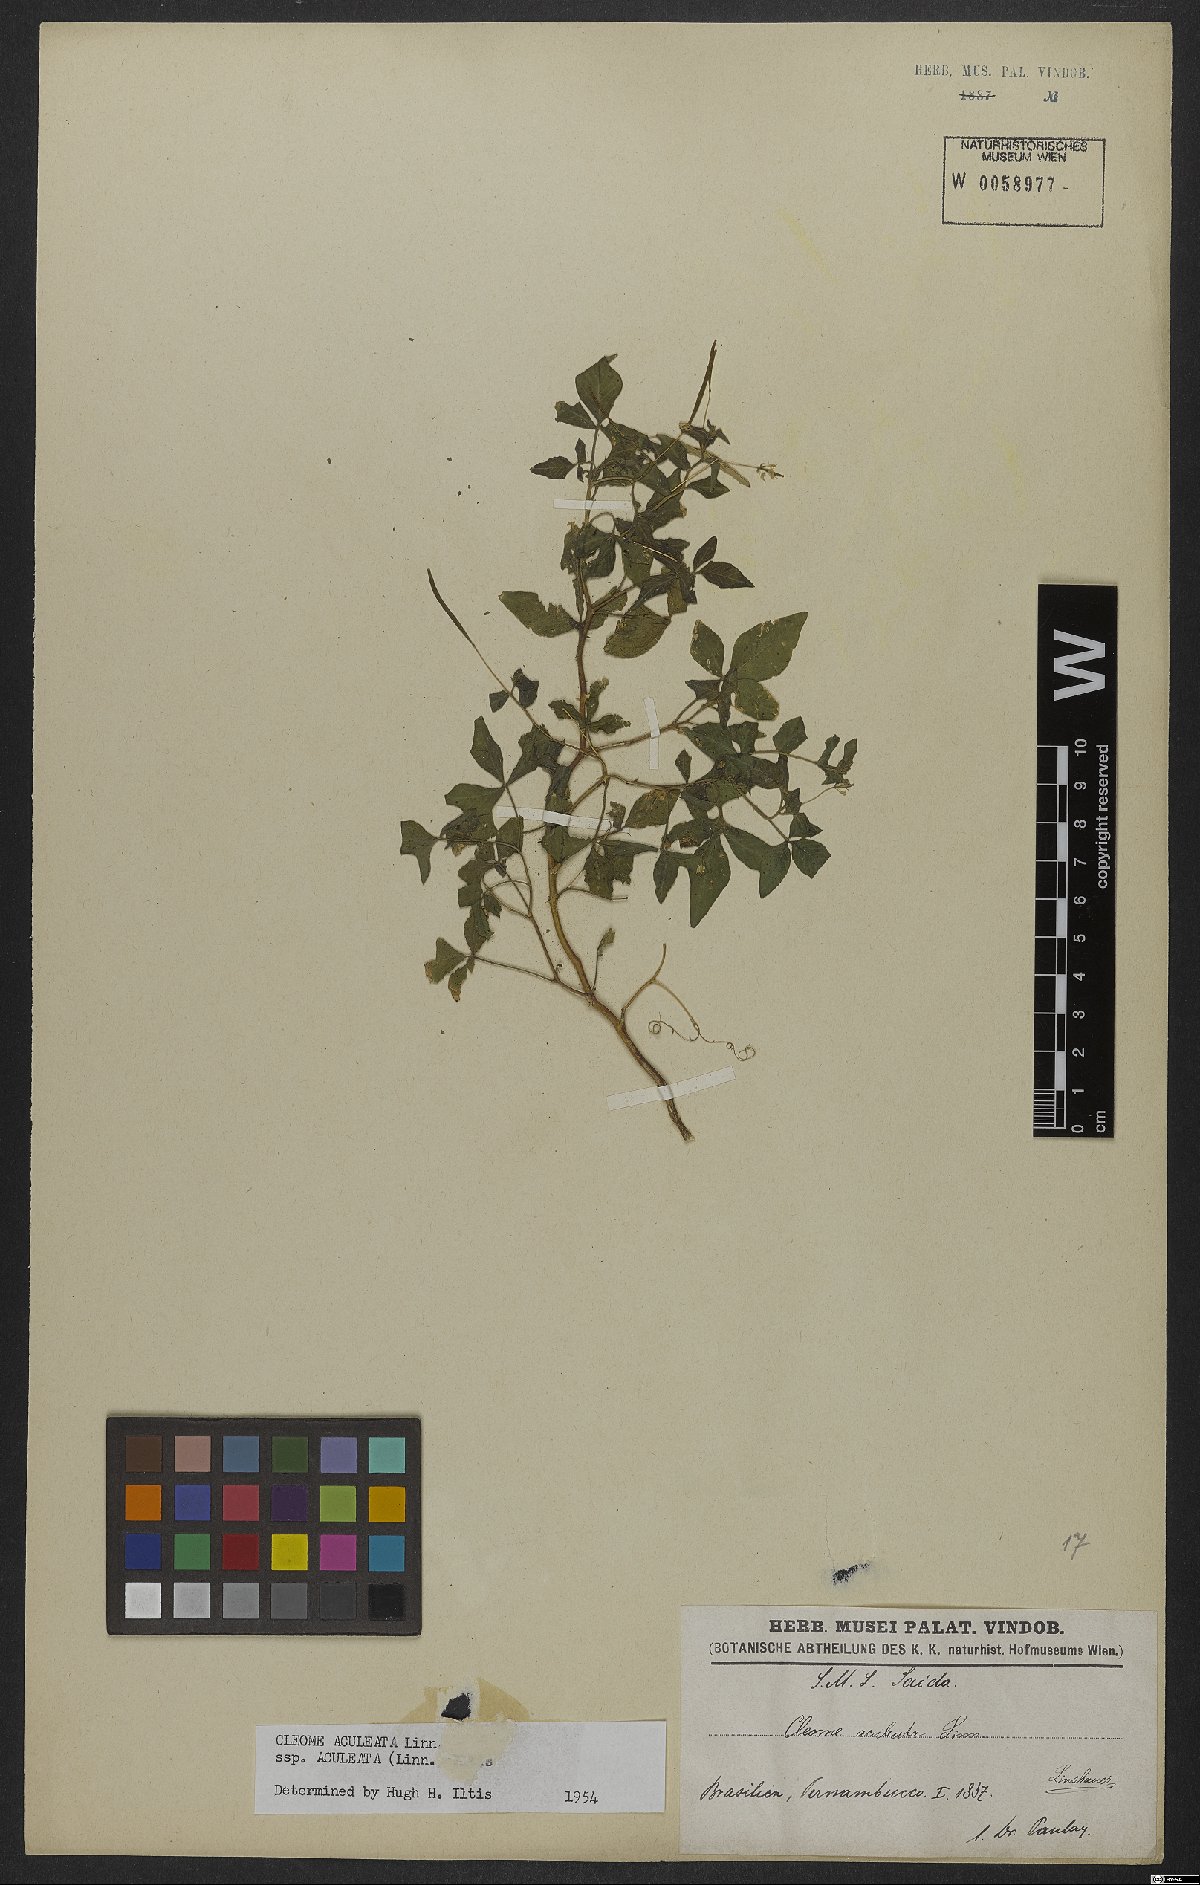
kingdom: Plantae
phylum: Tracheophyta
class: Magnoliopsida
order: Brassicales
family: Cleomaceae
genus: Tarenaya
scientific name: Tarenaya aculeata
